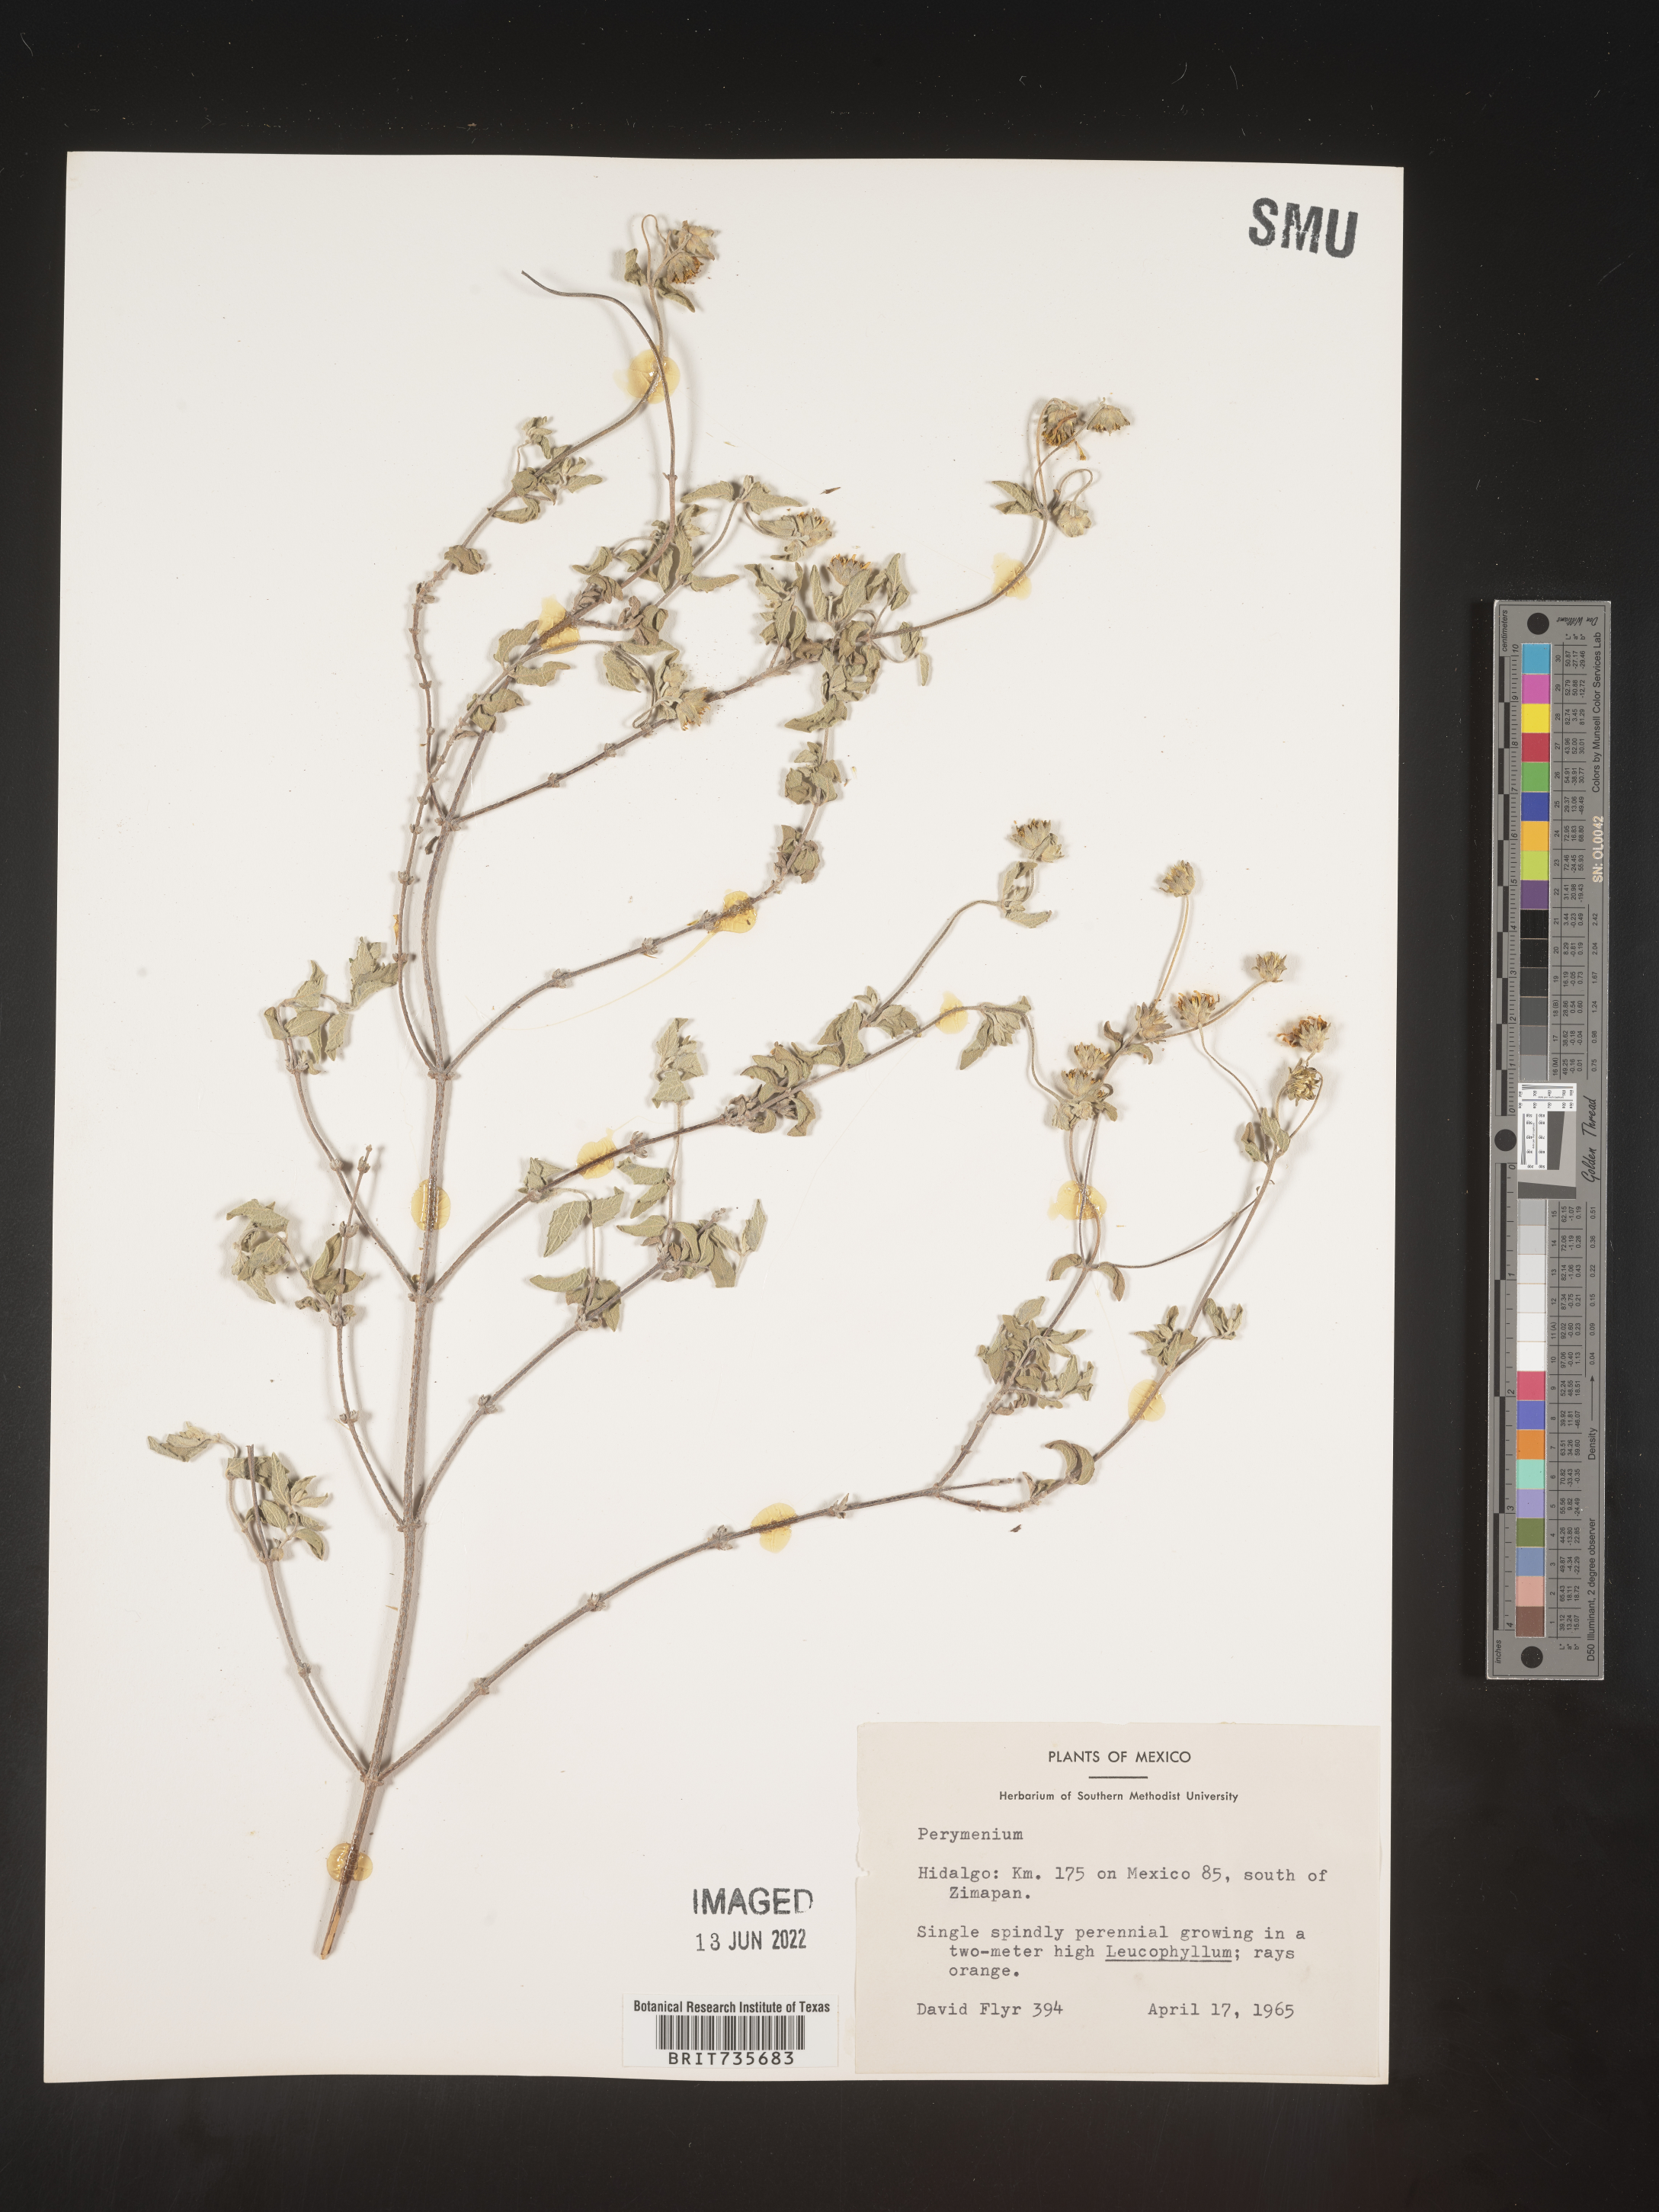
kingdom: Plantae
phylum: Tracheophyta
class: Magnoliopsida
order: Asterales
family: Asteraceae
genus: Perymenium
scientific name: Perymenium
